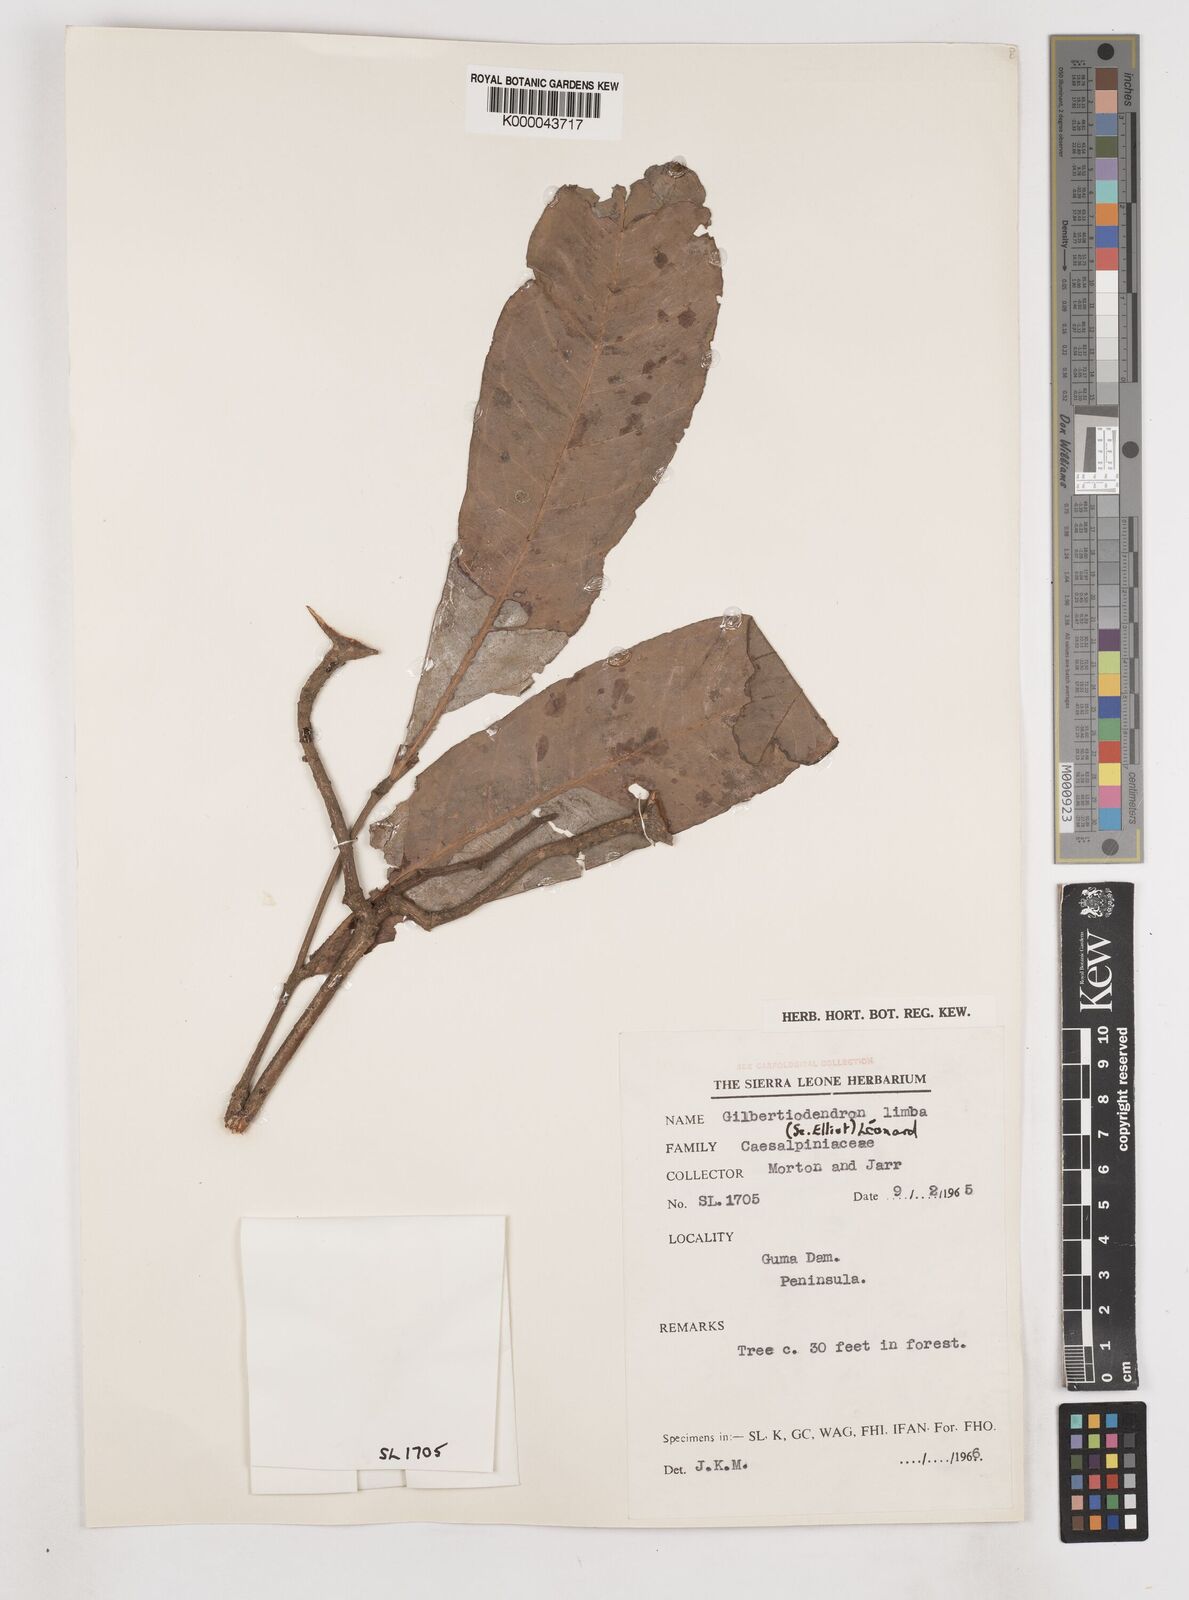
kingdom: Plantae
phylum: Tracheophyta
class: Magnoliopsida
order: Fabales
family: Fabaceae
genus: Gilbertiodendron
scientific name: Gilbertiodendron
